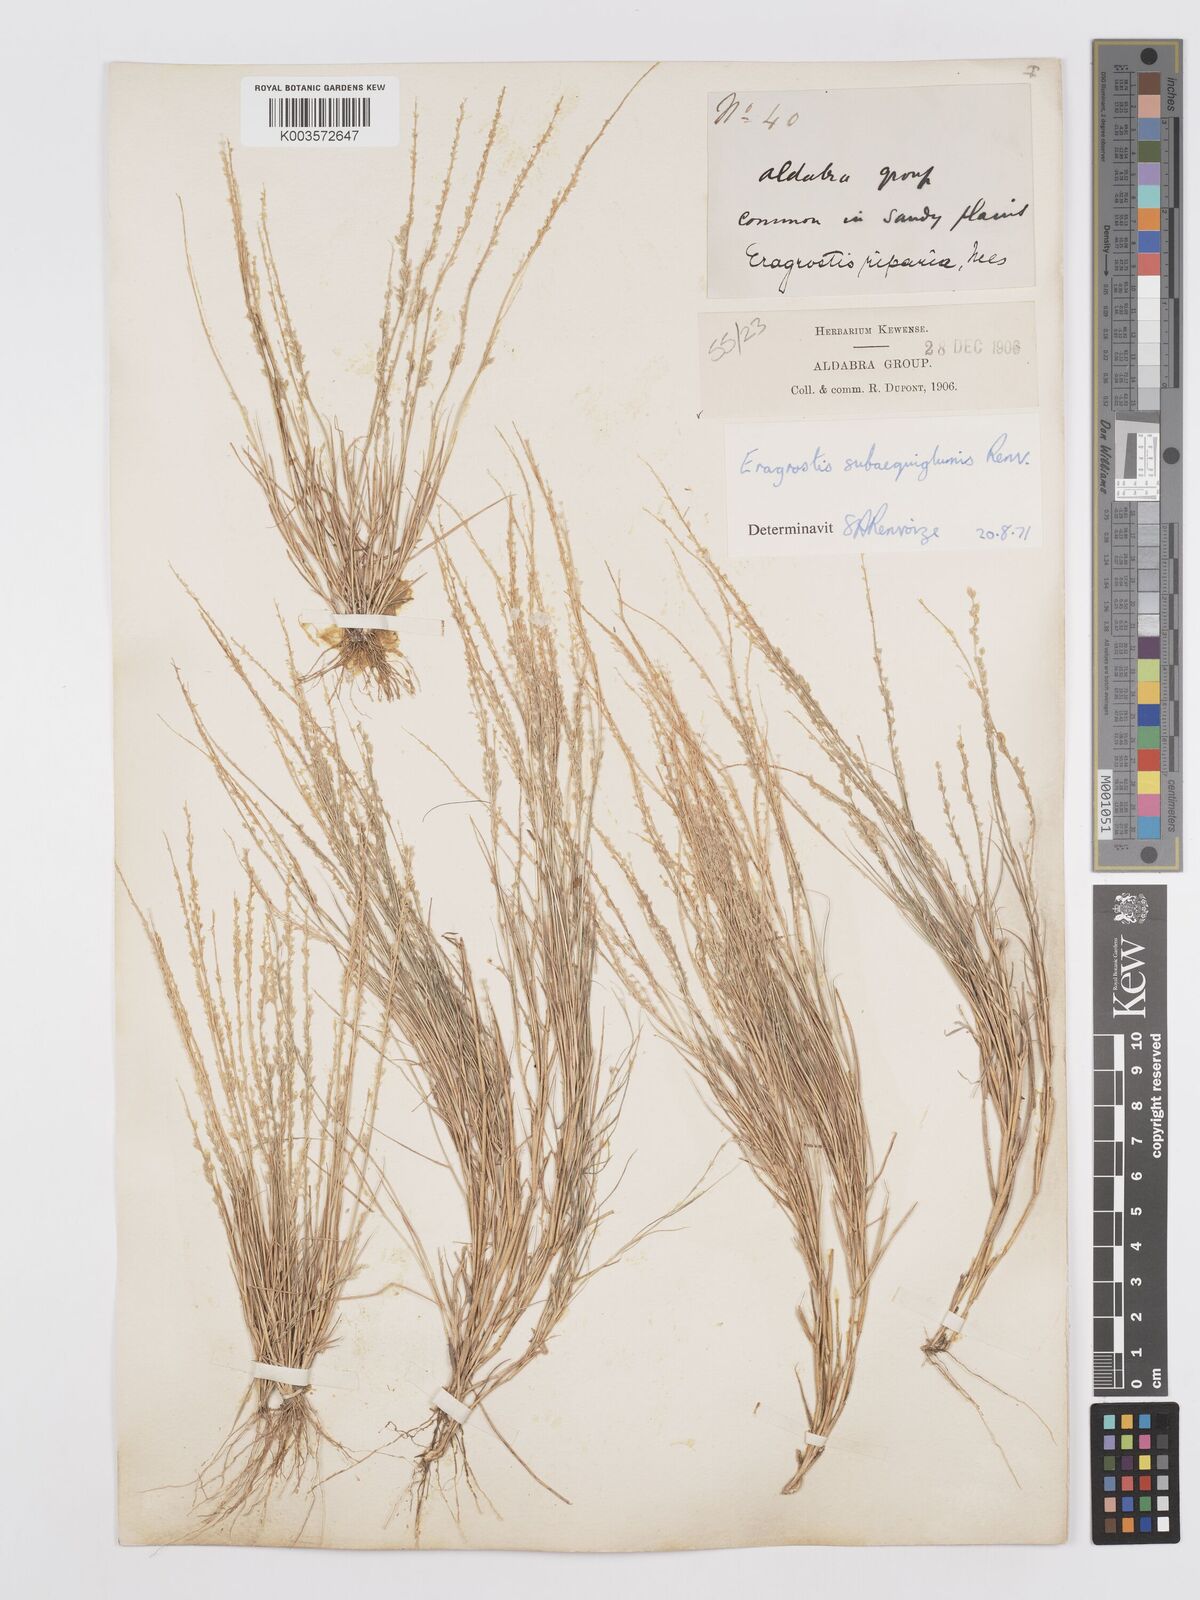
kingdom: Plantae
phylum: Tracheophyta
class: Liliopsida
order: Poales
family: Poaceae
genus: Eragrostis
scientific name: Eragrostis subaequiglumis
